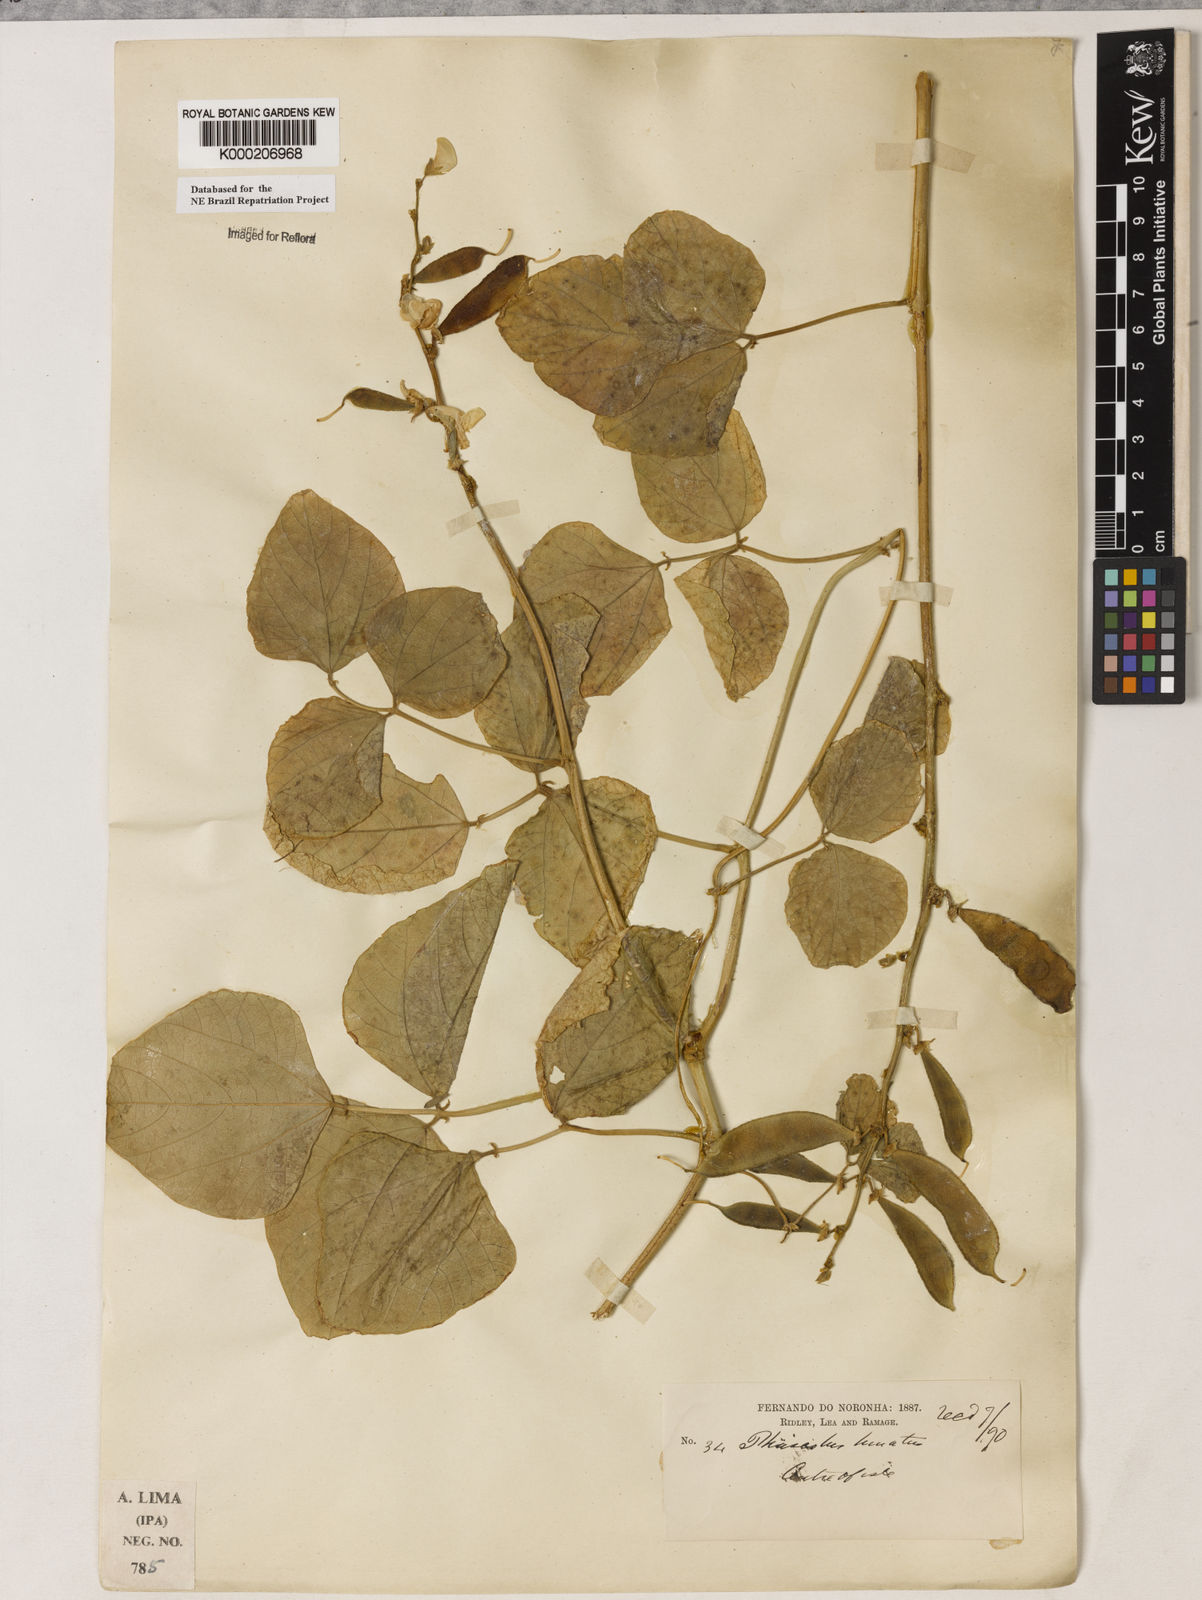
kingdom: Plantae
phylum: Tracheophyta
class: Magnoliopsida
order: Fabales
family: Fabaceae
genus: Lablab
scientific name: Lablab purpureus
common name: Lablab-bean
